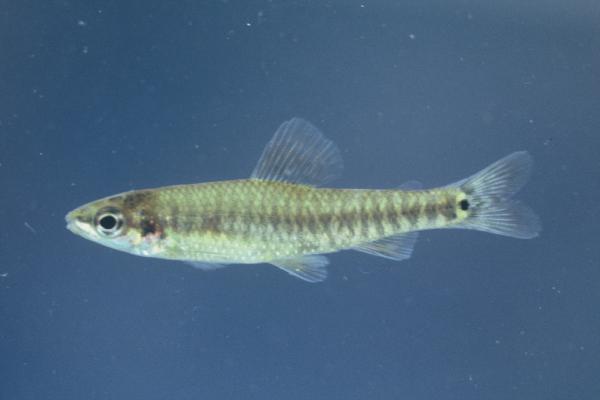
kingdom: Animalia
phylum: Chordata
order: Characiformes
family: Distichodontidae
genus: Nannocharax
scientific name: Nannocharax multifasciatus
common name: Multibar citharine
